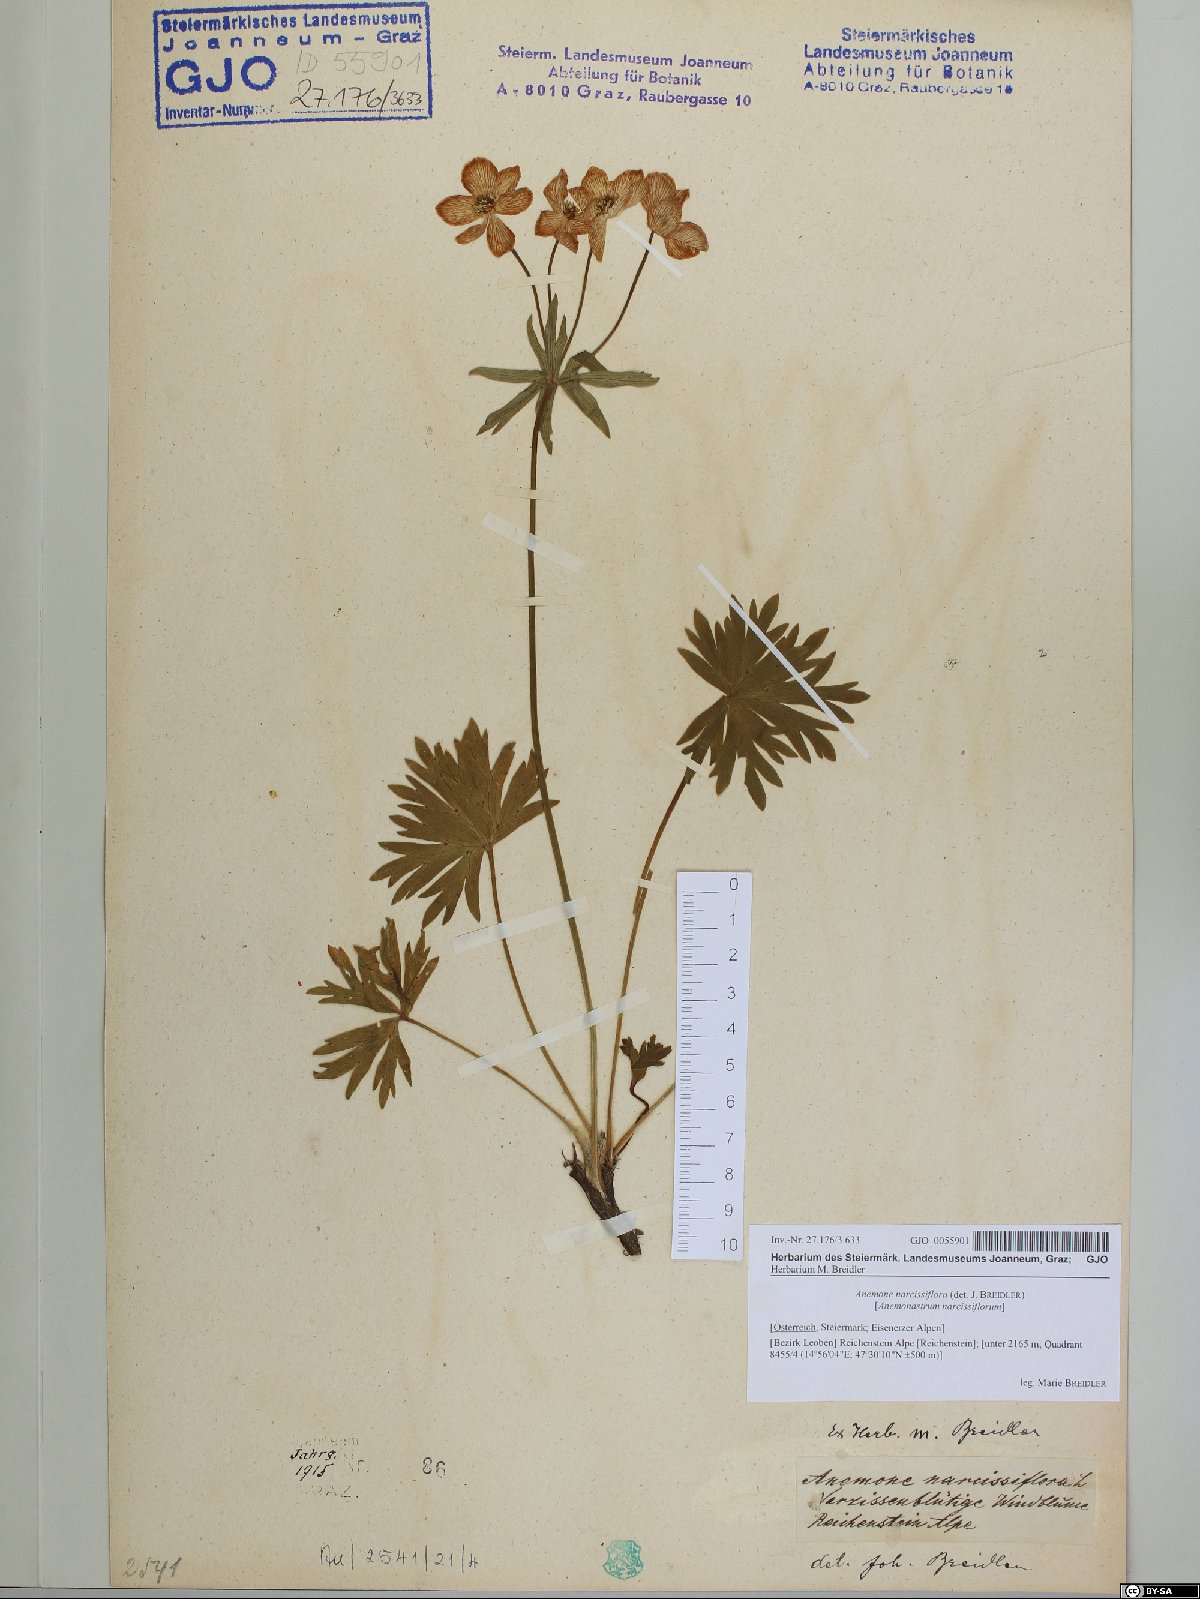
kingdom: Plantae
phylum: Tracheophyta
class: Magnoliopsida
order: Ranunculales
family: Ranunculaceae
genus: Anemonastrum
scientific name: Anemonastrum narcissiflorum
